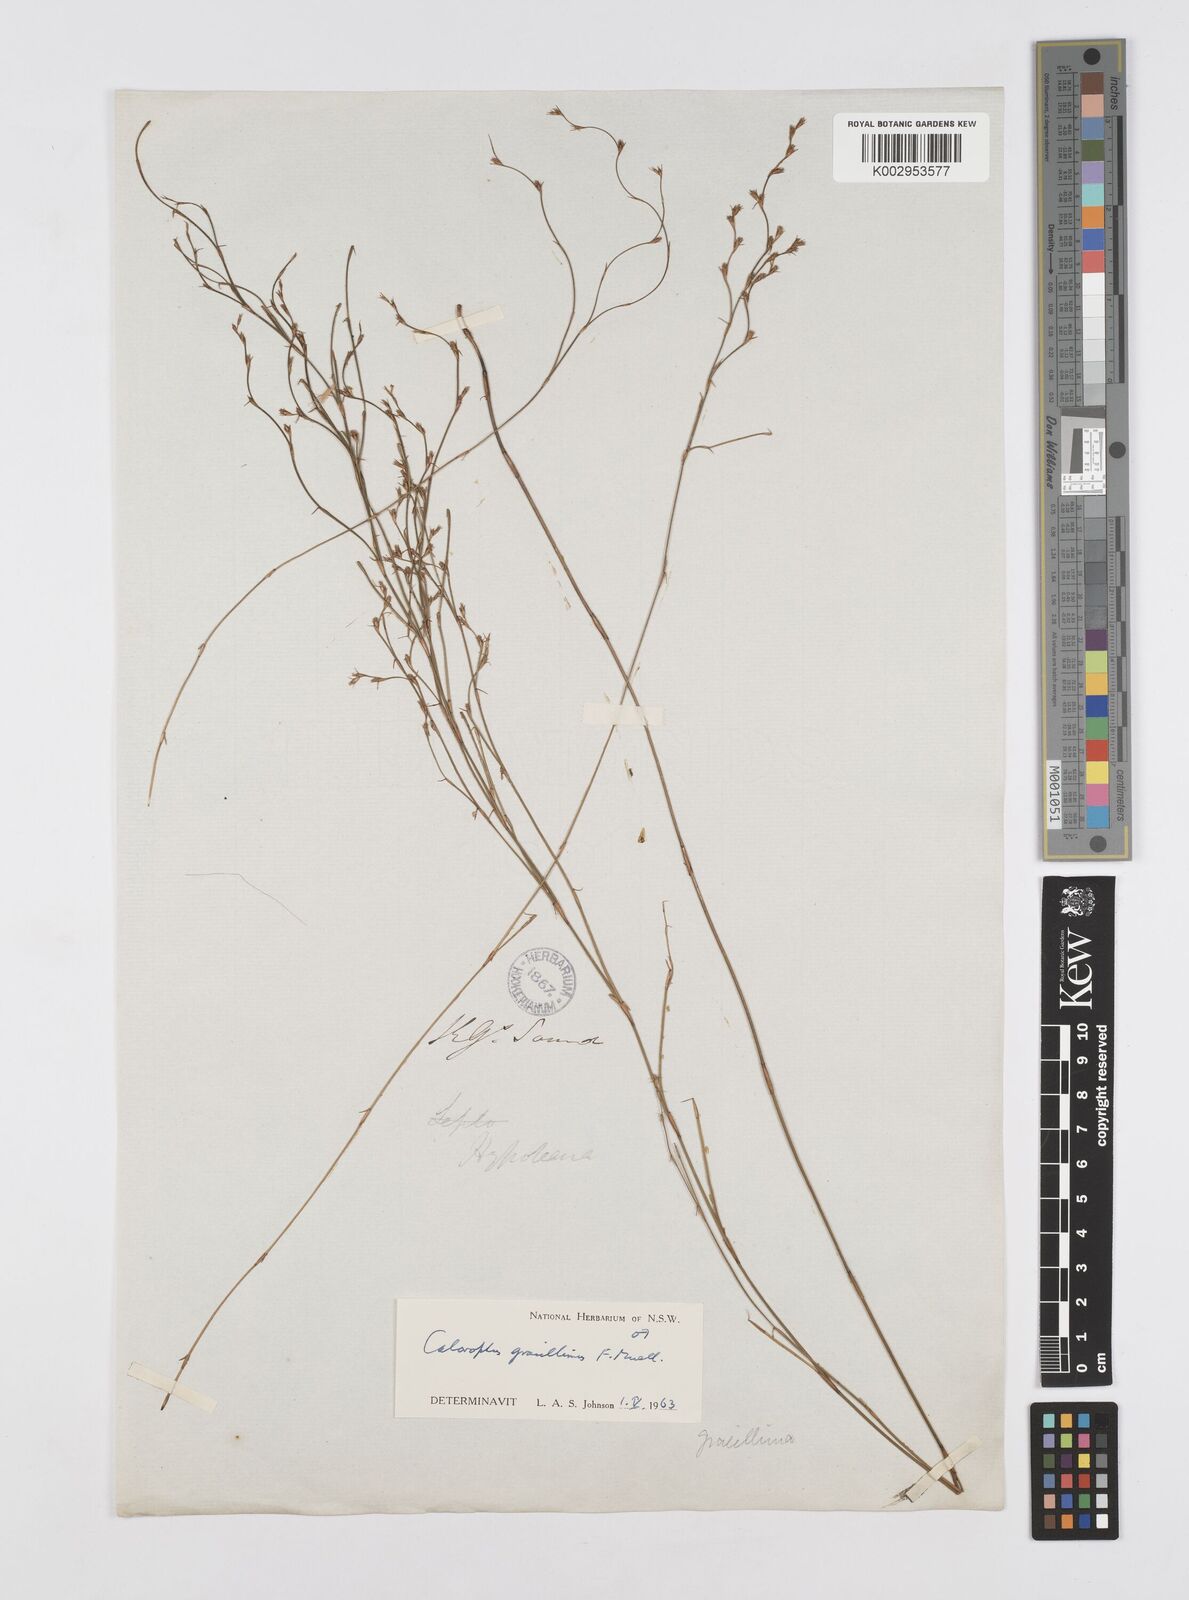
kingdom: Plantae
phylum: Tracheophyta
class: Liliopsida
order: Poales
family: Restionaceae
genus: Empodisma
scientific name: Empodisma gracillimum
